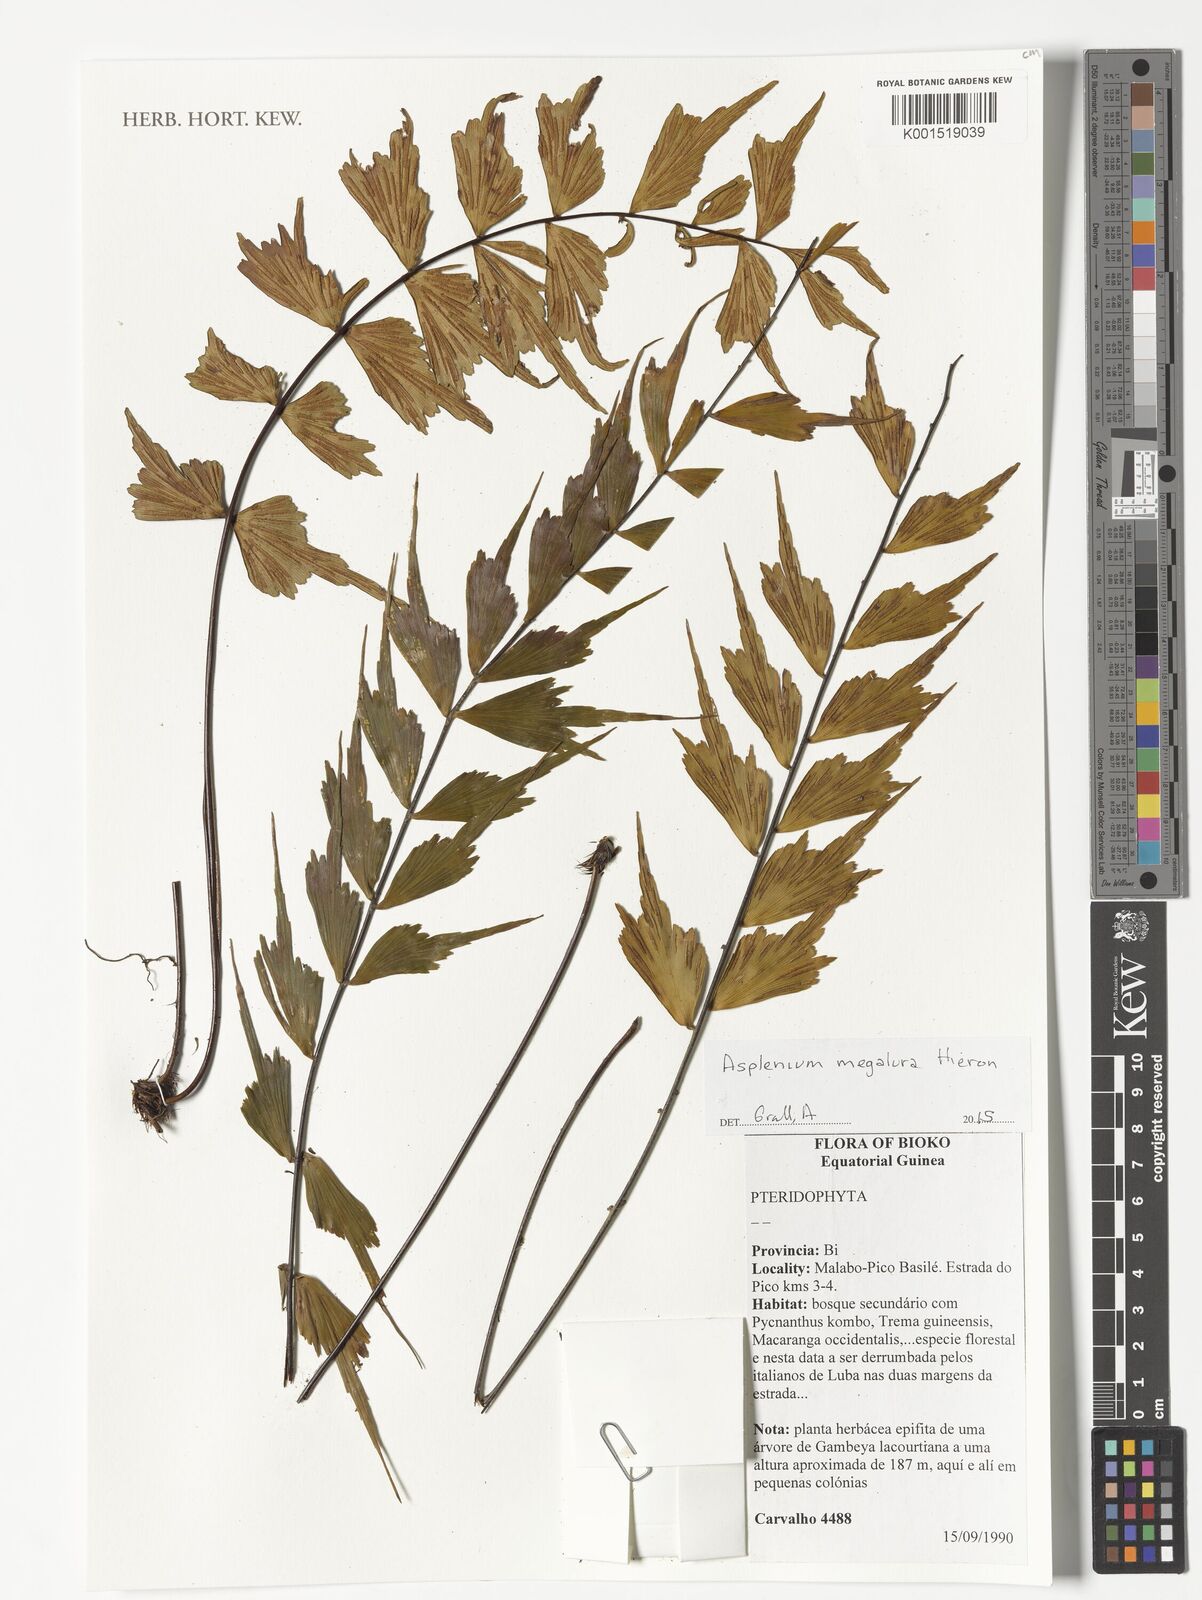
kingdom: Plantae
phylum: Tracheophyta
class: Polypodiopsida
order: Polypodiales
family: Aspleniaceae
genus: Asplenium
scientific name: Asplenium megalura
